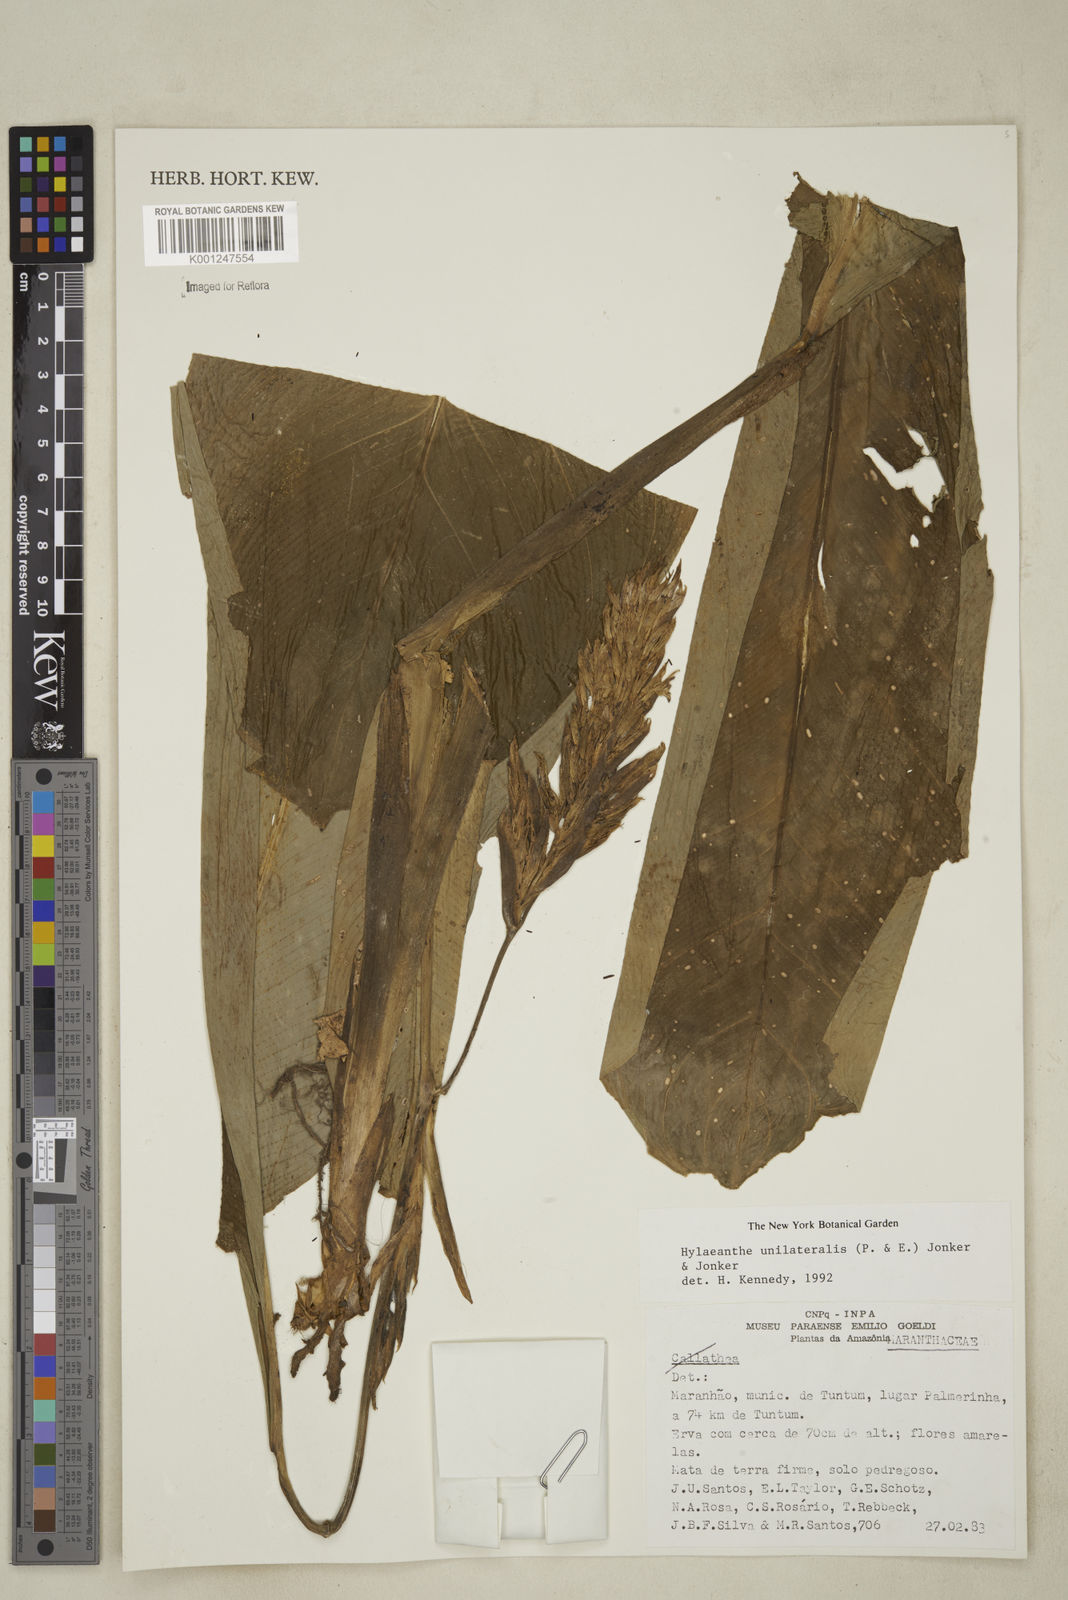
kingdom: Plantae
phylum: Tracheophyta
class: Liliopsida
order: Zingiberales
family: Marantaceae
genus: Hylaeanthe
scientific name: Hylaeanthe unilateralis
